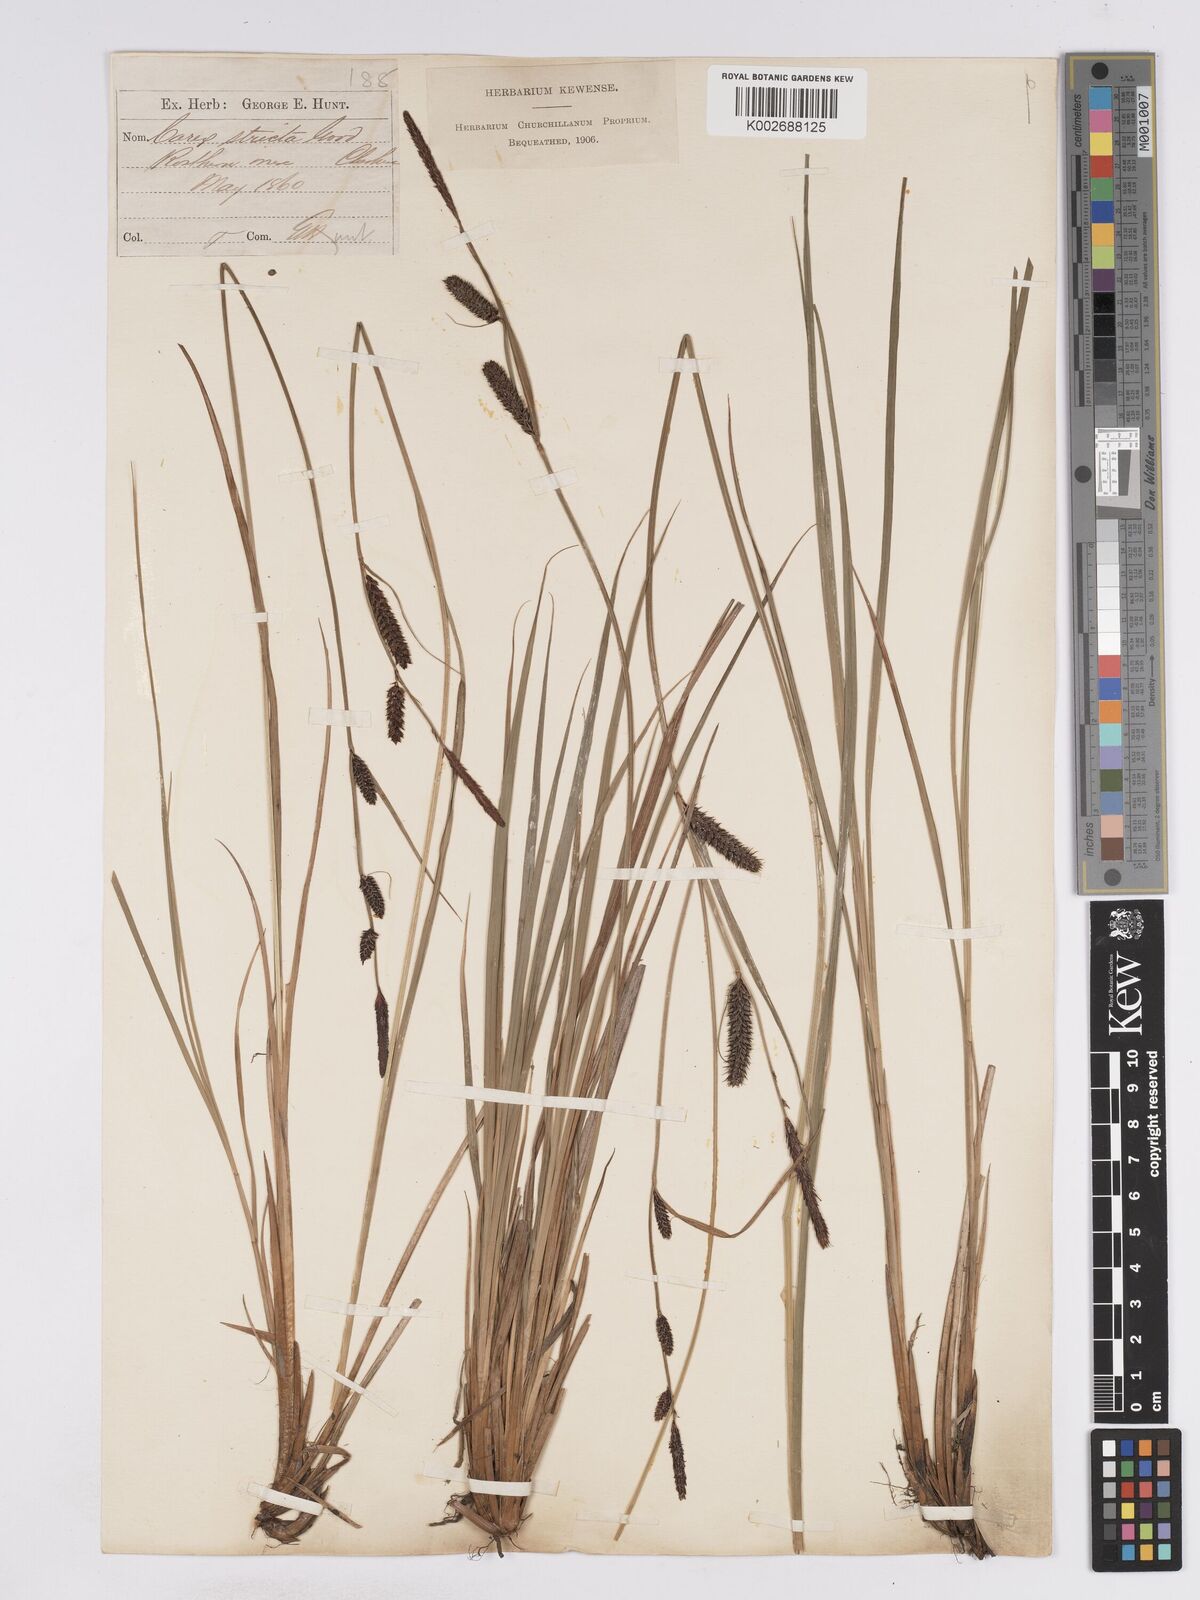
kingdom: Plantae
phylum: Tracheophyta
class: Liliopsida
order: Poales
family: Cyperaceae
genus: Carex
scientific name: Carex elata
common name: Tufted sedge
